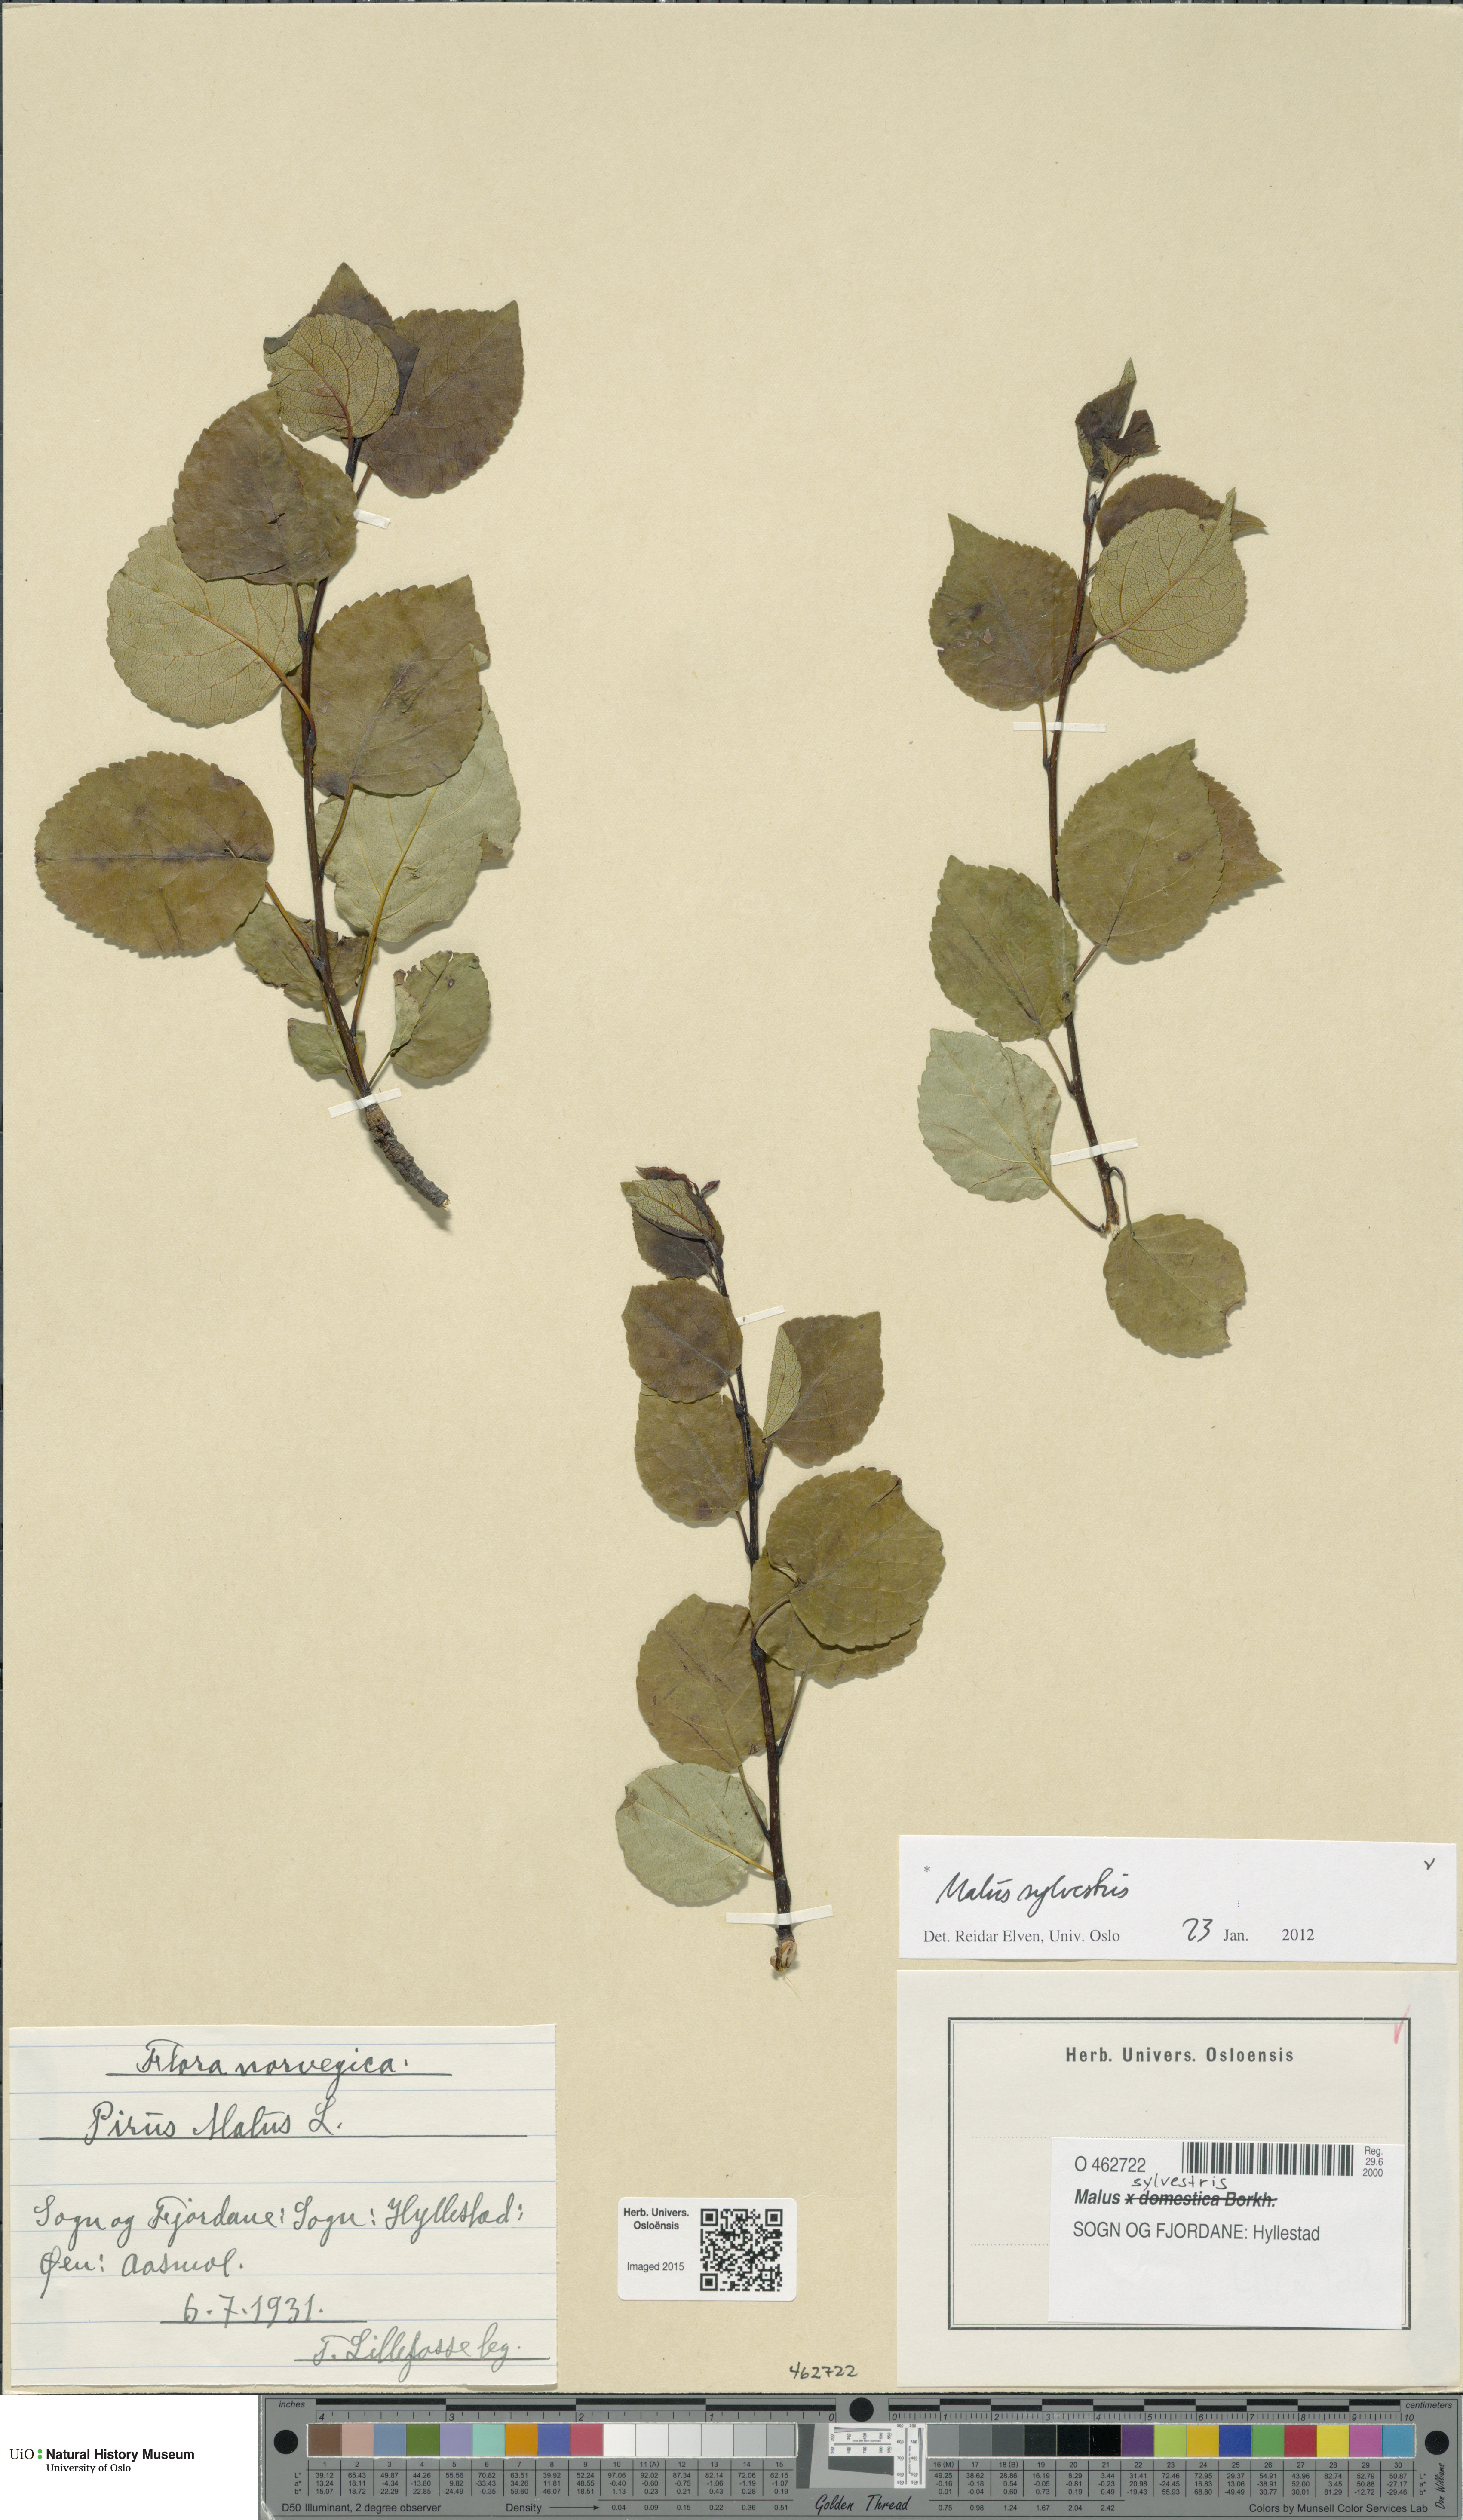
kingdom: Plantae
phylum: Tracheophyta
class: Magnoliopsida
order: Rosales
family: Rosaceae
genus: Malus
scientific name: Malus sylvestris
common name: Crab apple
